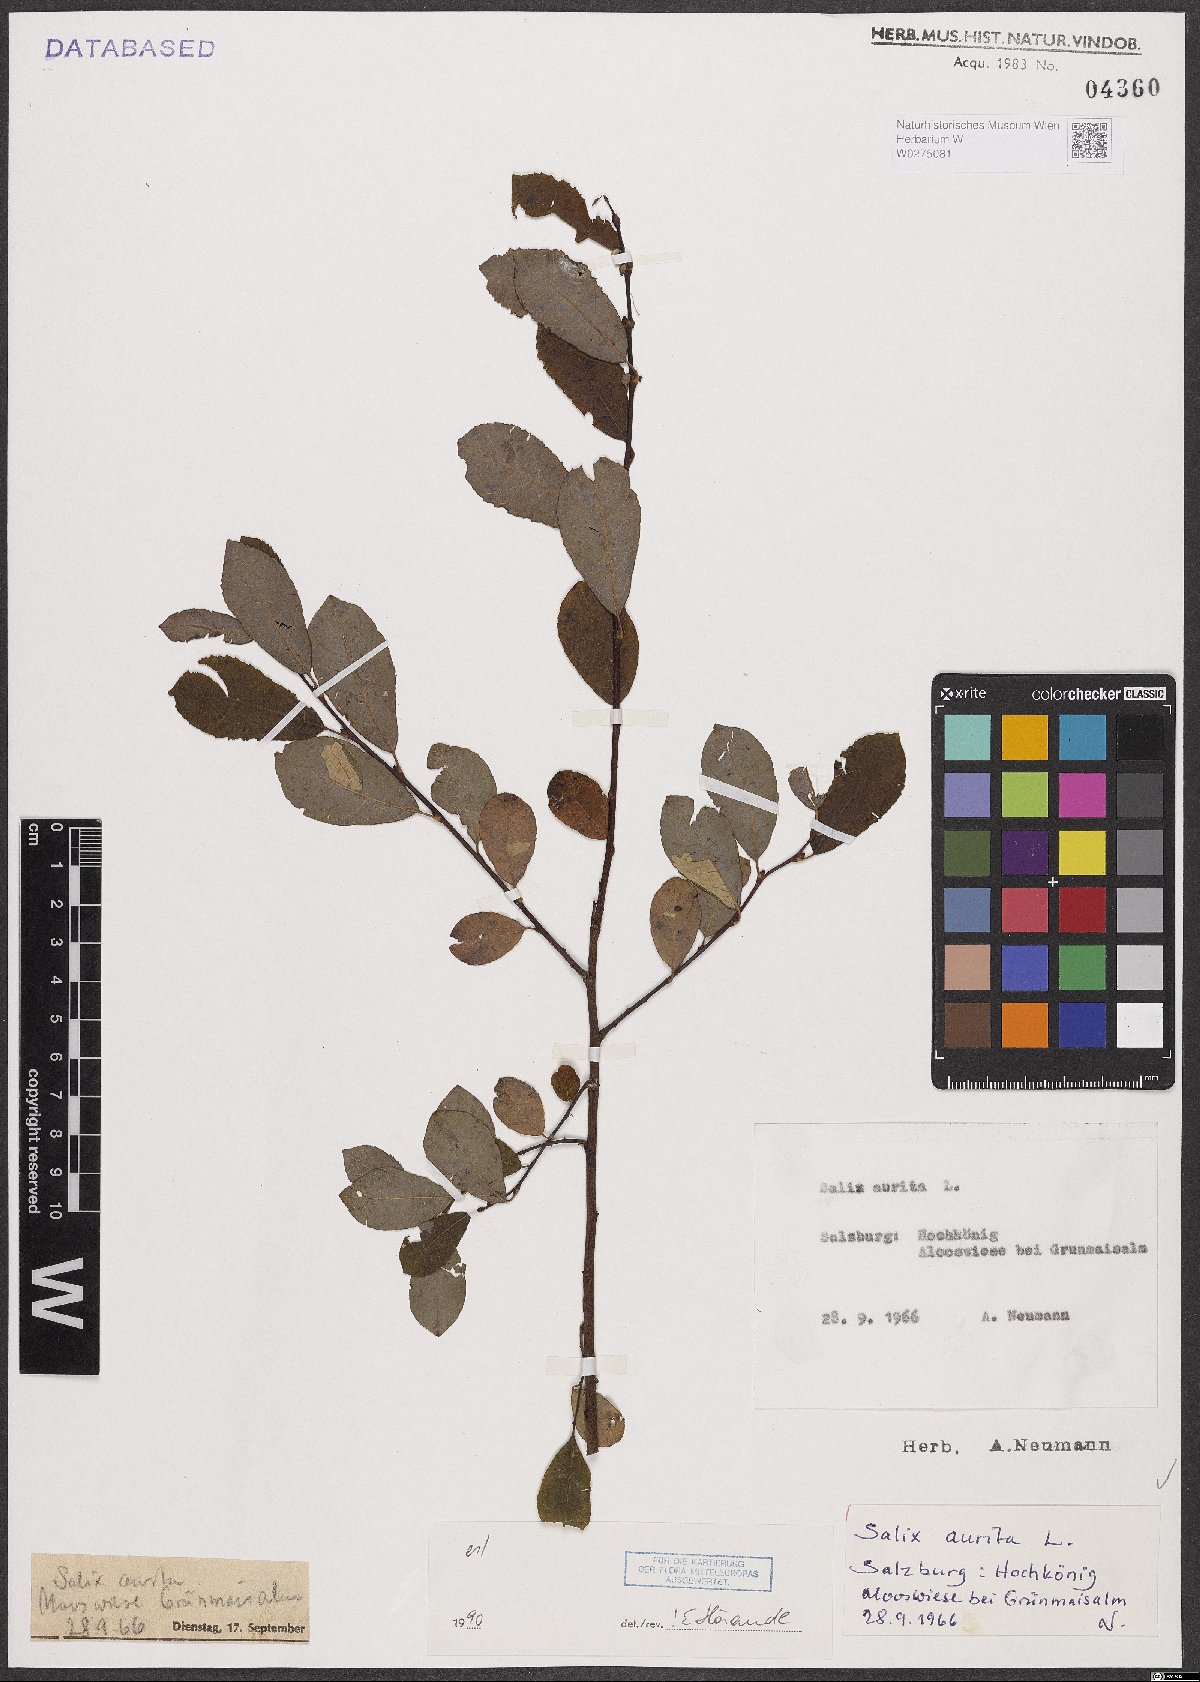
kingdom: Plantae
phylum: Tracheophyta
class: Magnoliopsida
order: Malpighiales
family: Salicaceae
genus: Salix
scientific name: Salix aurita
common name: Eared willow
